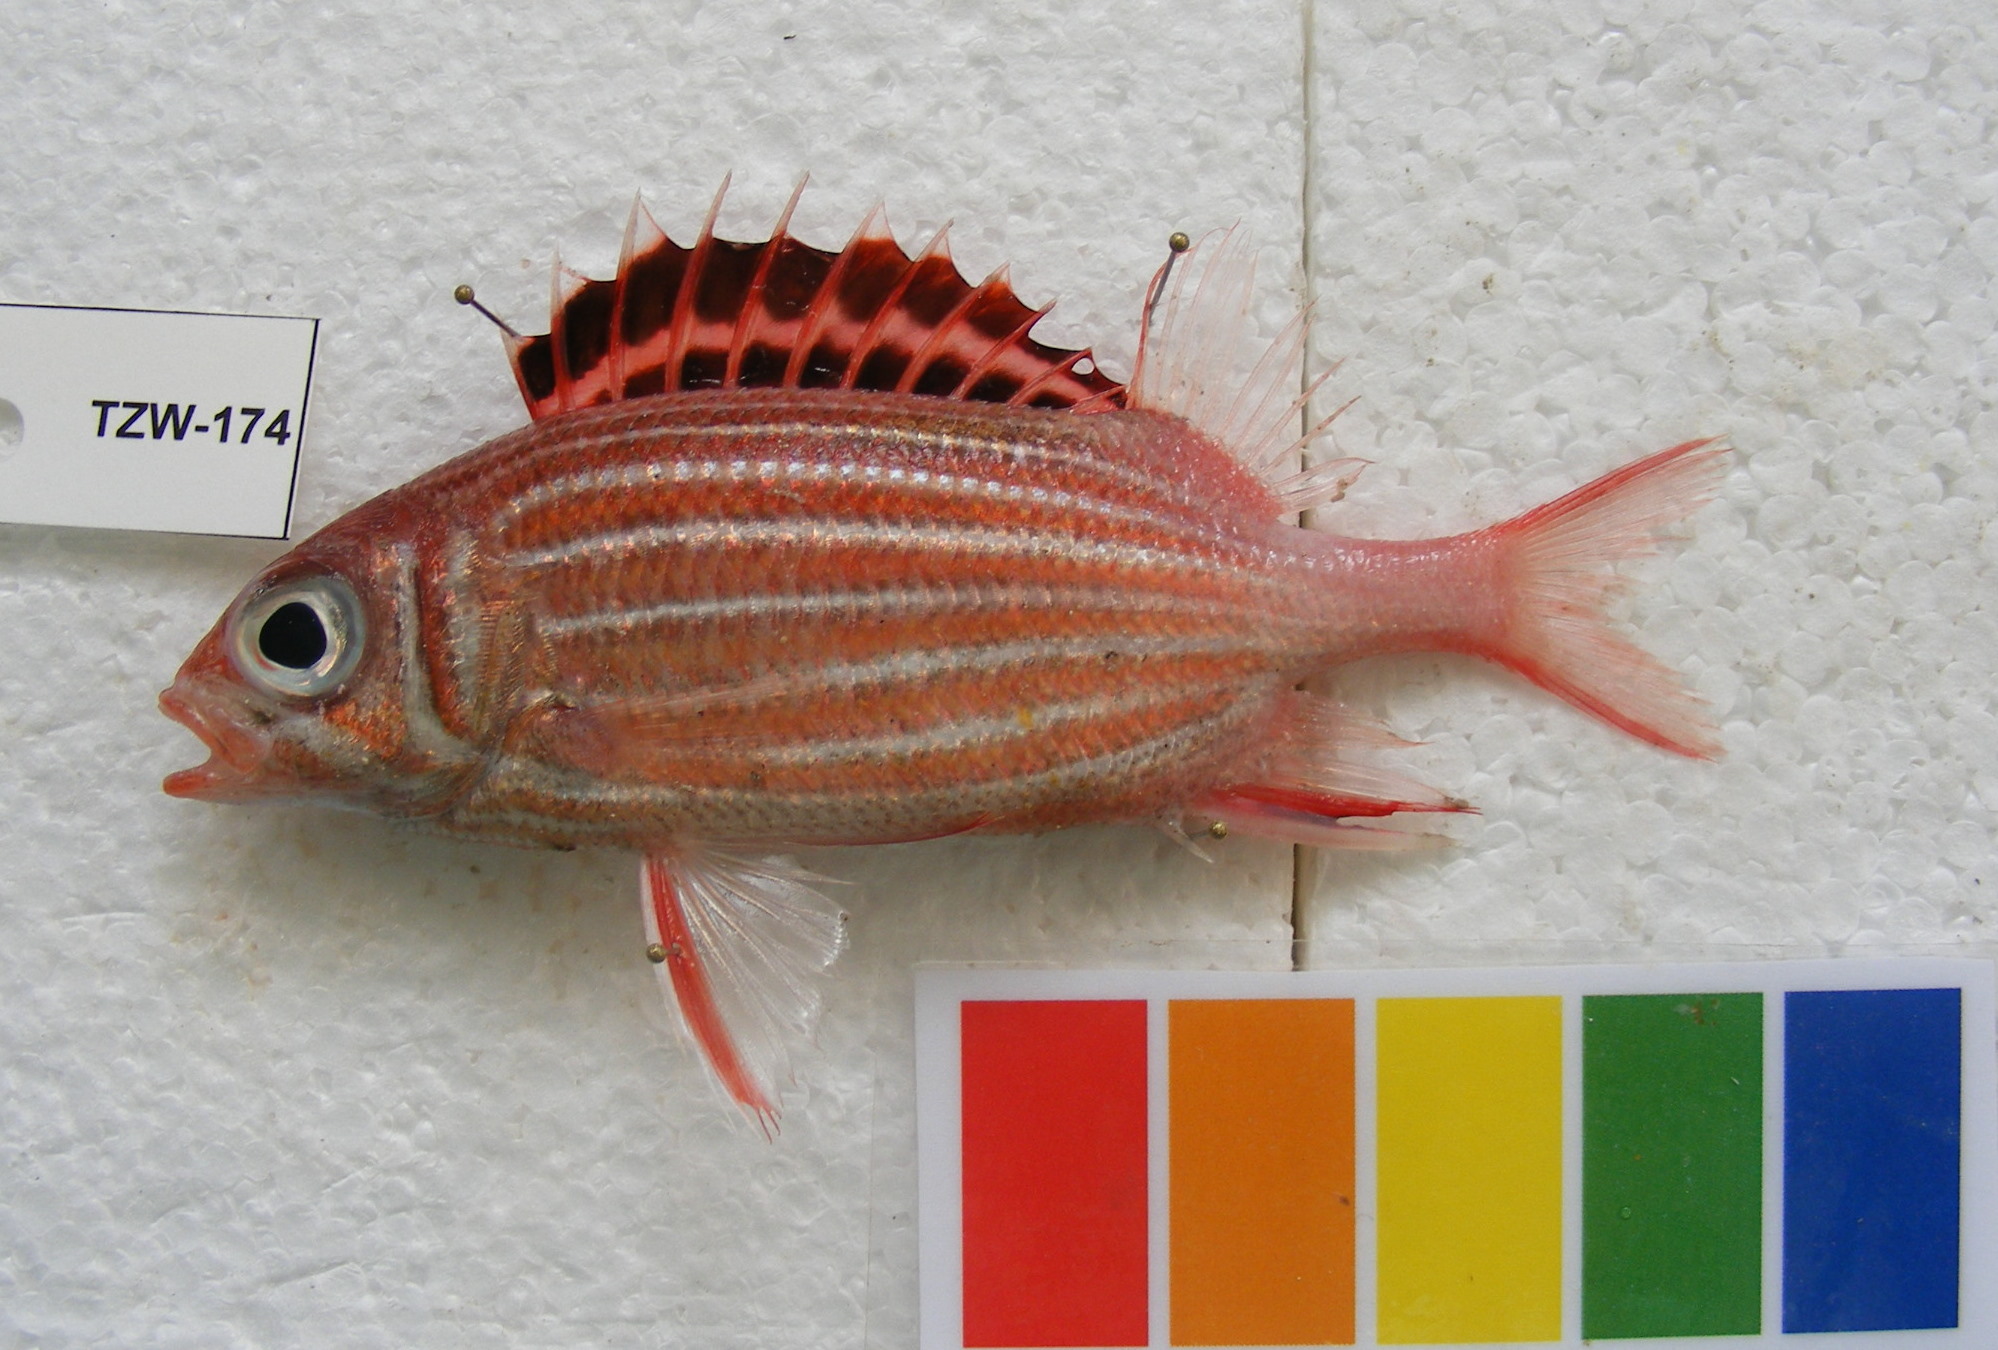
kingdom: Animalia
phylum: Chordata
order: Beryciformes
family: Holocentridae
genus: Sargocentron
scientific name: Sargocentron diadema
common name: Crown squirrelfish
